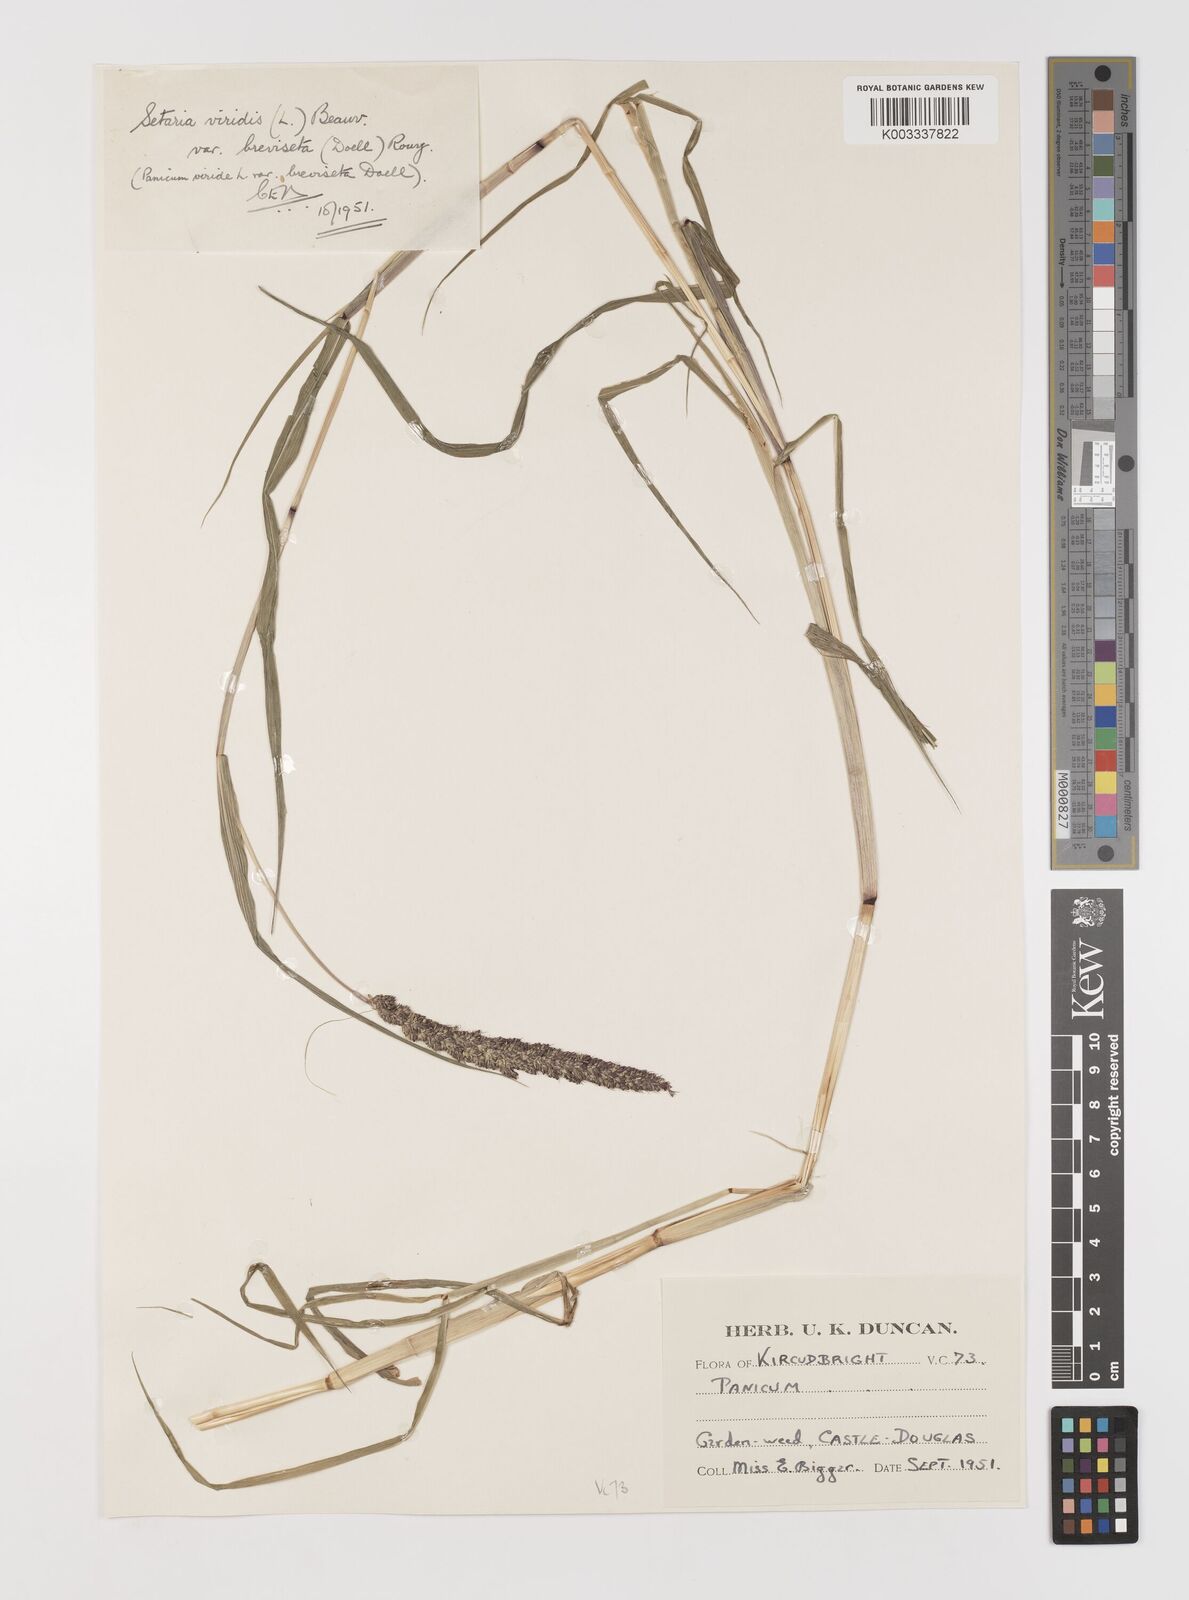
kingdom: Plantae
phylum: Tracheophyta
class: Liliopsida
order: Poales
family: Poaceae
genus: Setaria
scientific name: Setaria viridis
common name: Green bristlegrass
